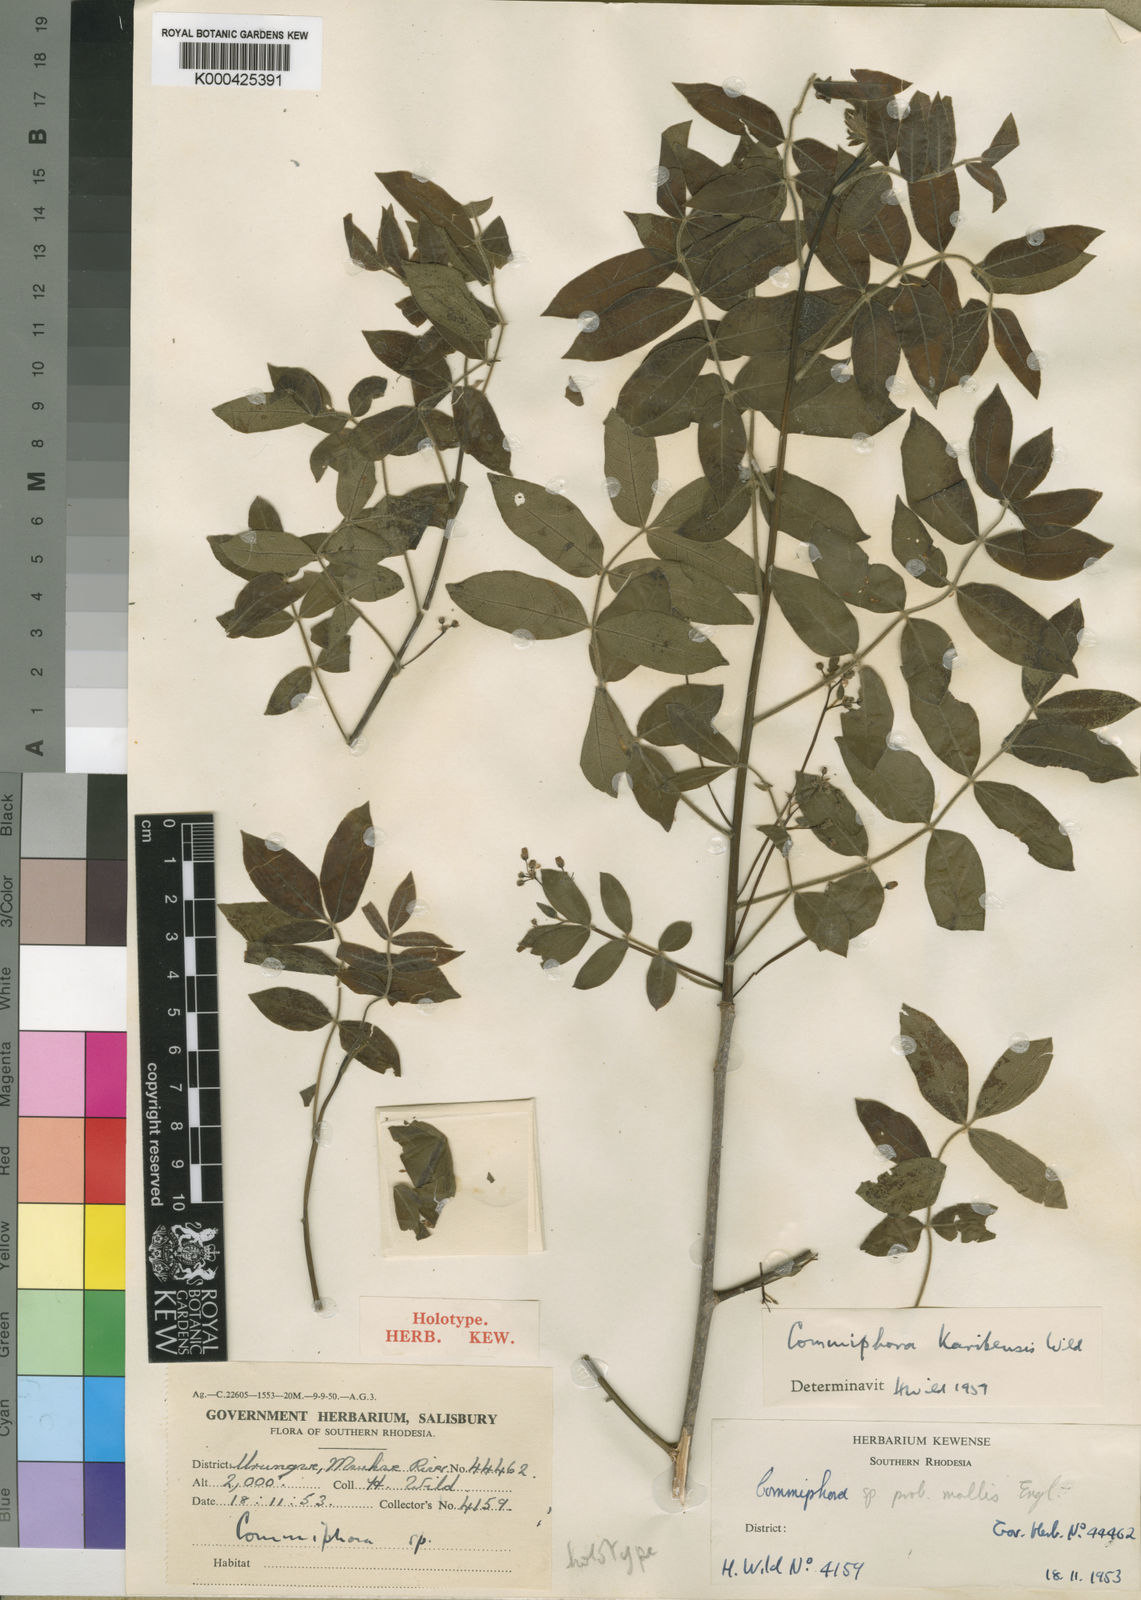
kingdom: Plantae
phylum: Tracheophyta
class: Magnoliopsida
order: Sapindales
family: Burseraceae
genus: Commiphora
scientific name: Commiphora karibensis
